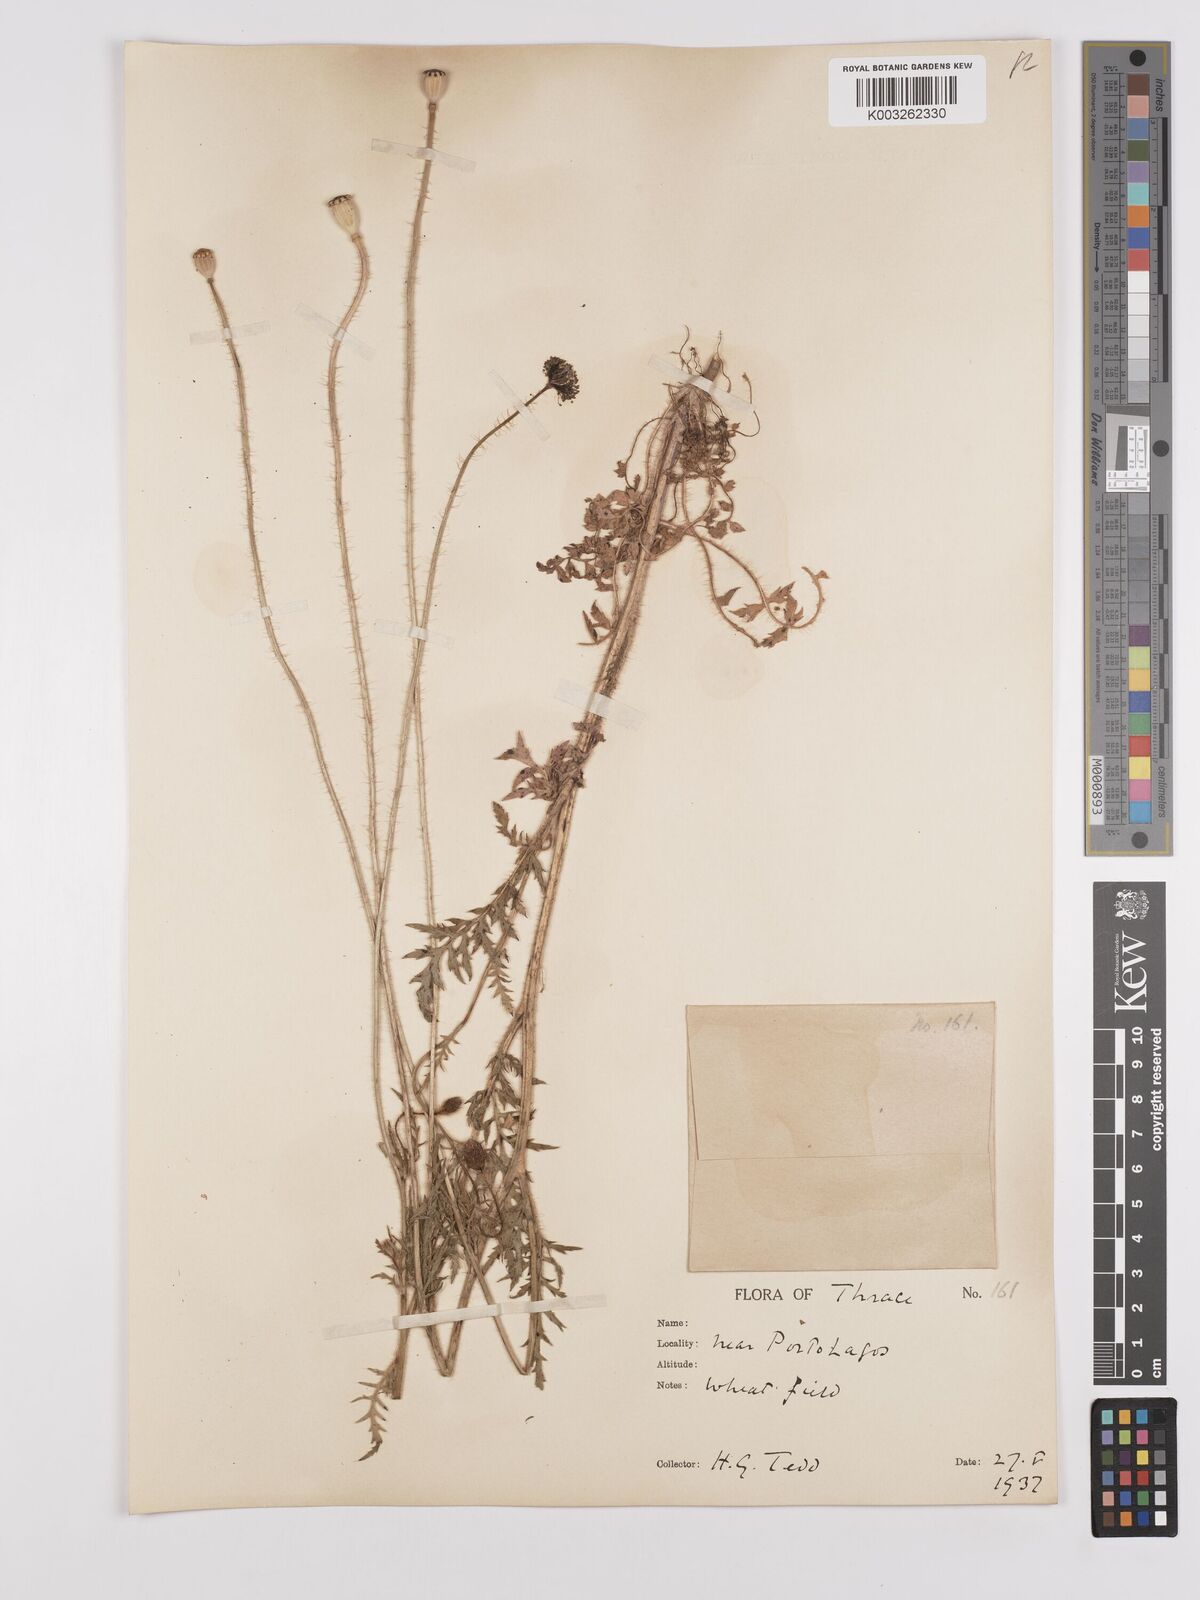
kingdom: Plantae
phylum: Tracheophyta
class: Magnoliopsida
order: Ranunculales
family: Papaveraceae
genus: Papaver
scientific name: Papaver rhoeas
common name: Corn poppy
